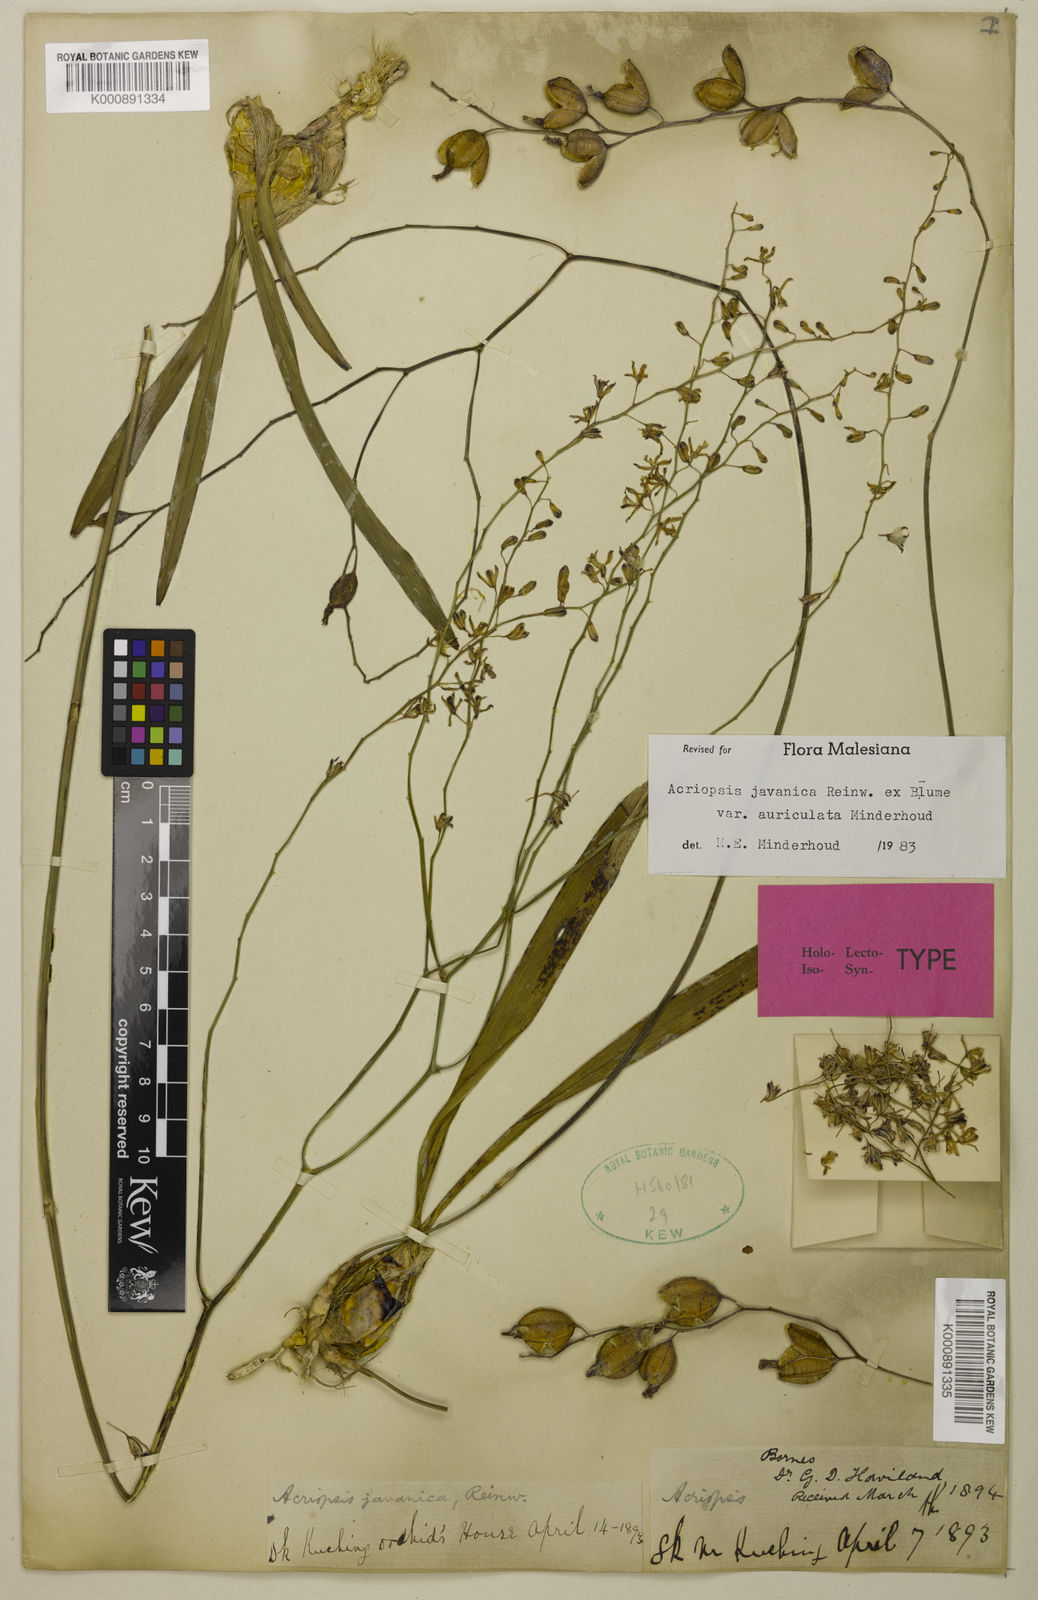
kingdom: Plantae
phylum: Tracheophyta
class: Liliopsida
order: Asparagales
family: Orchidaceae
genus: Acriopsis
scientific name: Acriopsis
